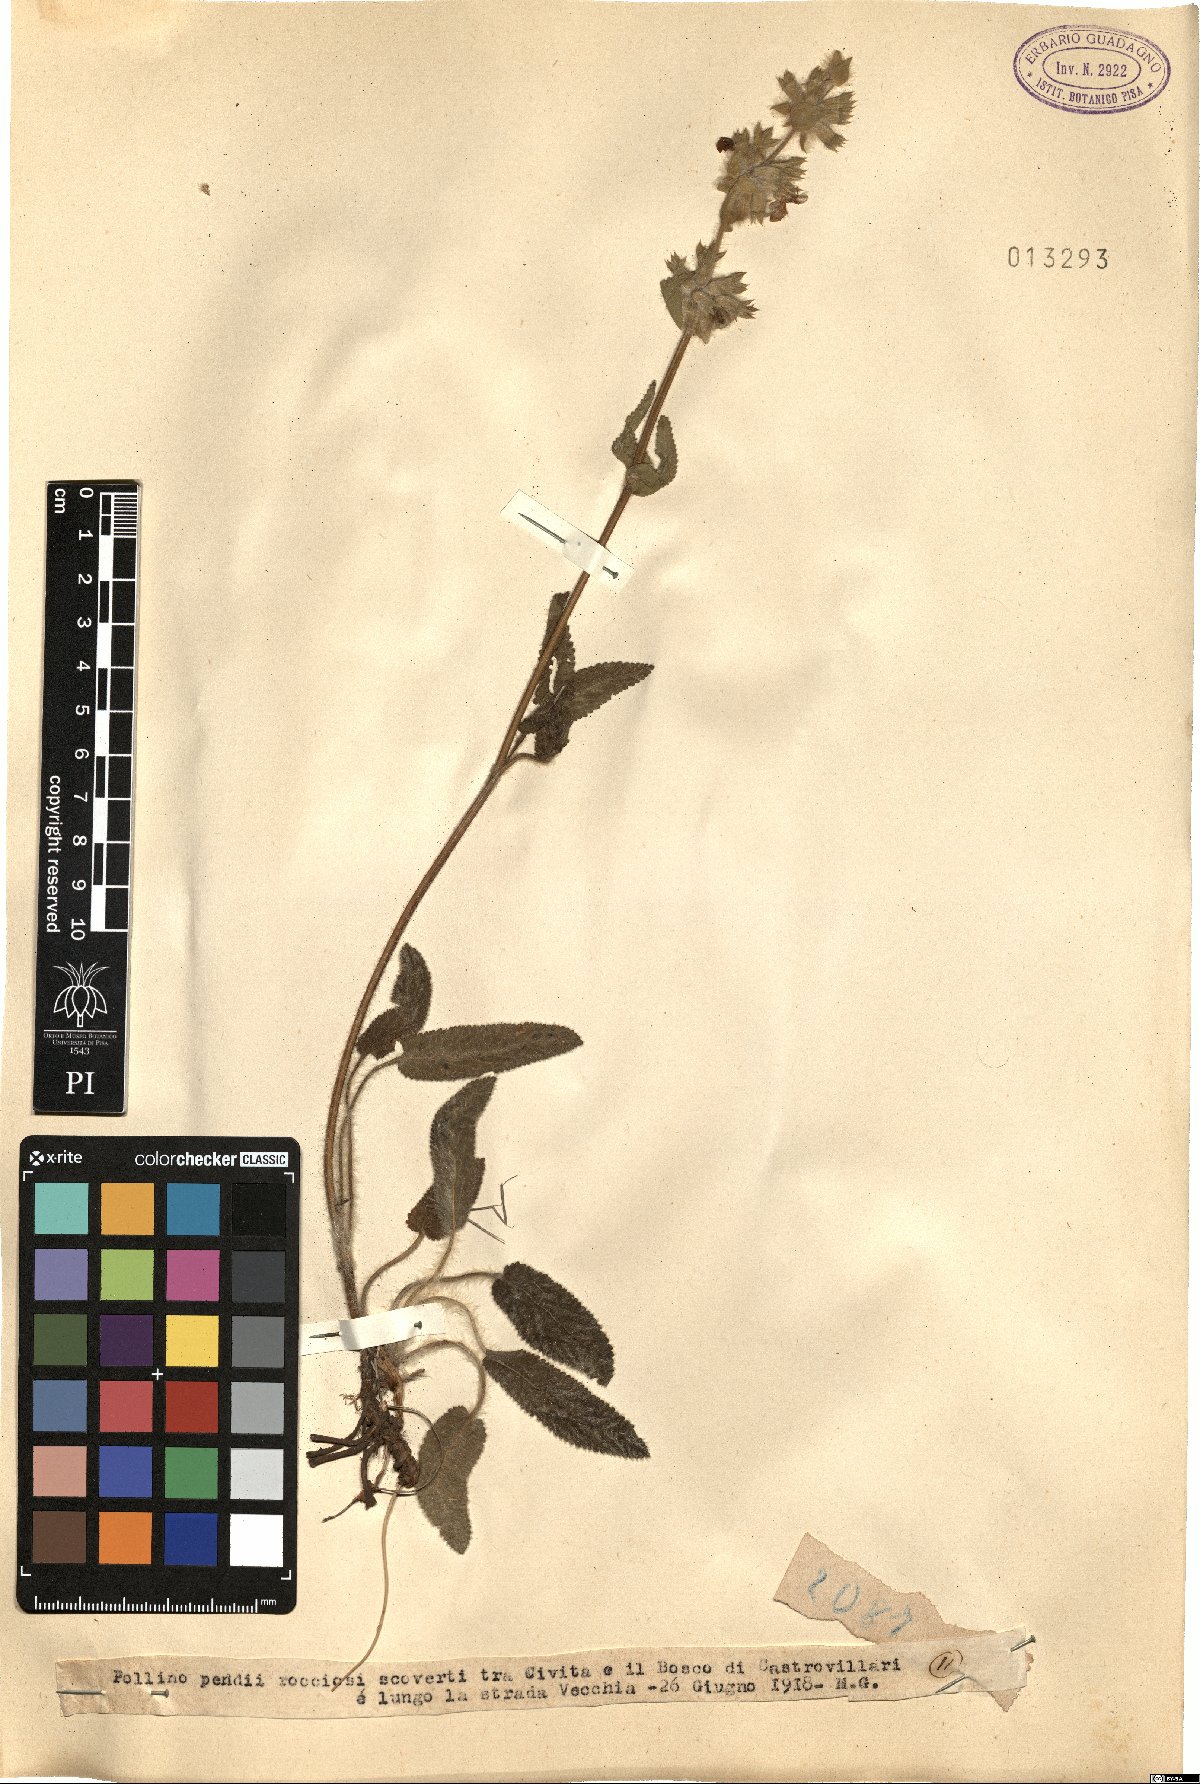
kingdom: Plantae
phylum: Tracheophyta
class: Magnoliopsida
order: Lamiales
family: Lamiaceae
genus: Stachys
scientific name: Stachys
